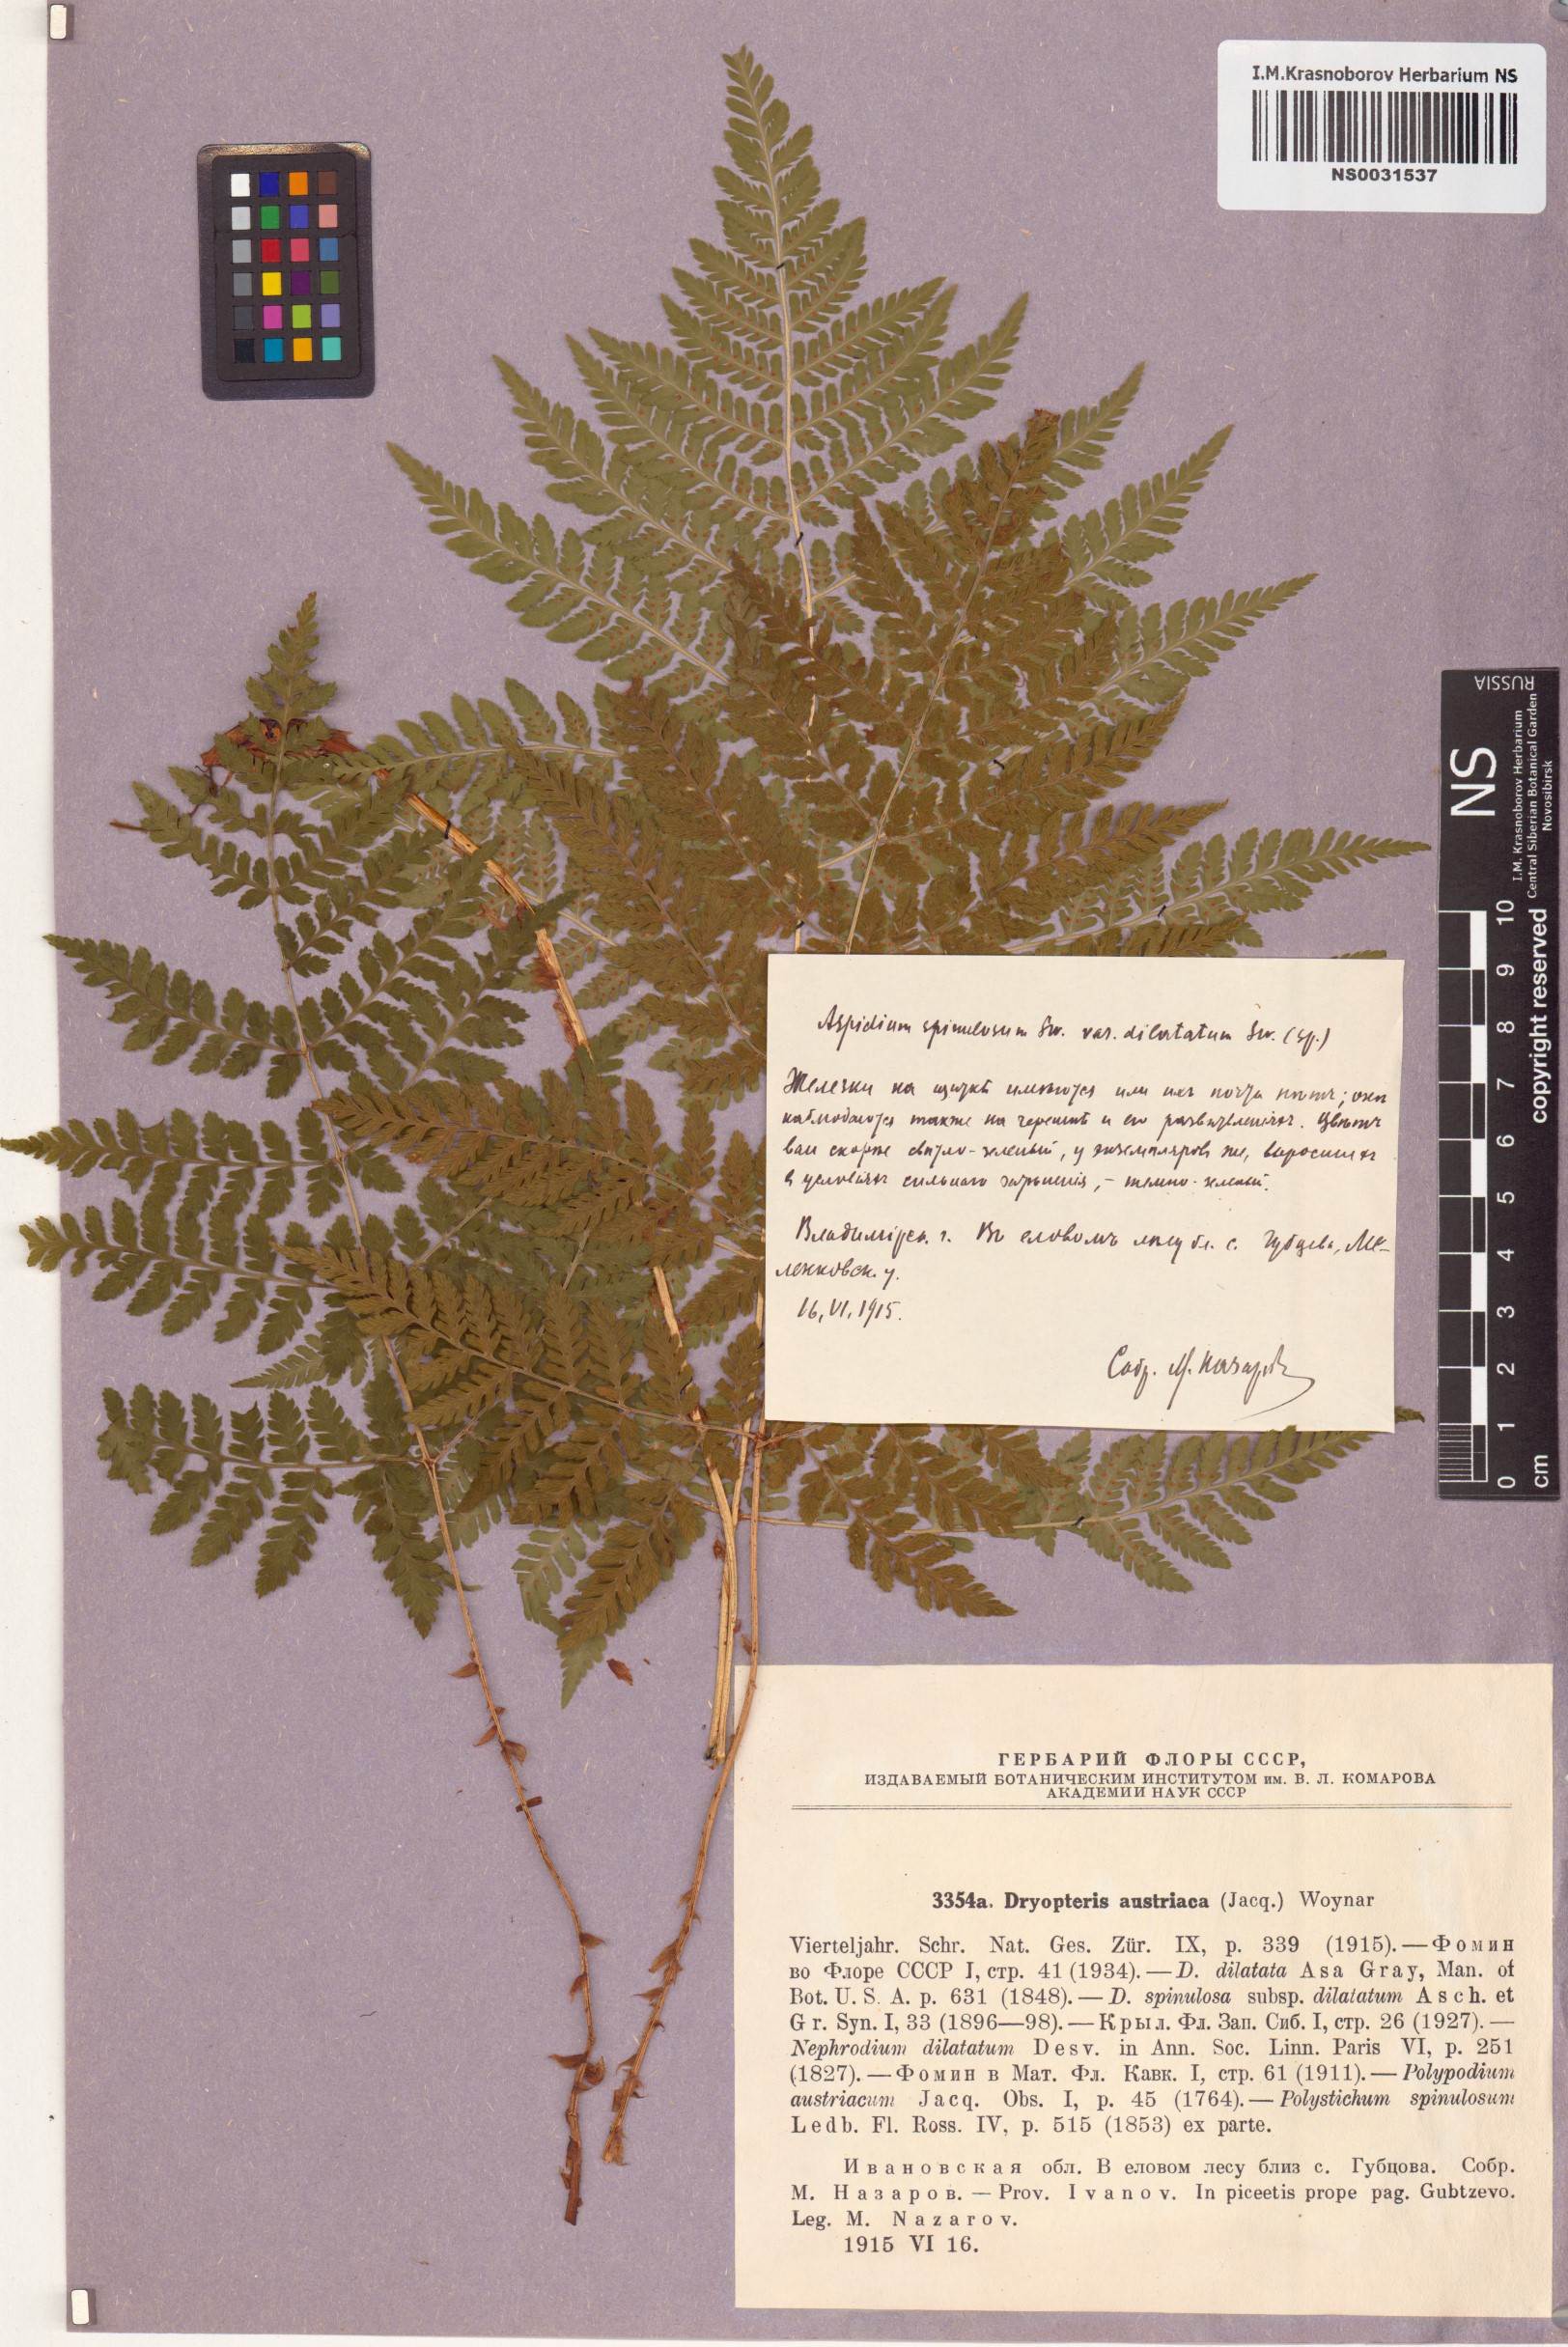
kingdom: Plantae
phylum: Tracheophyta
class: Polypodiopsida
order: Polypodiales
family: Dryopteridaceae
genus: Dryopteris
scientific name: Dryopteris dilatata
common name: Broad buckler-fern
